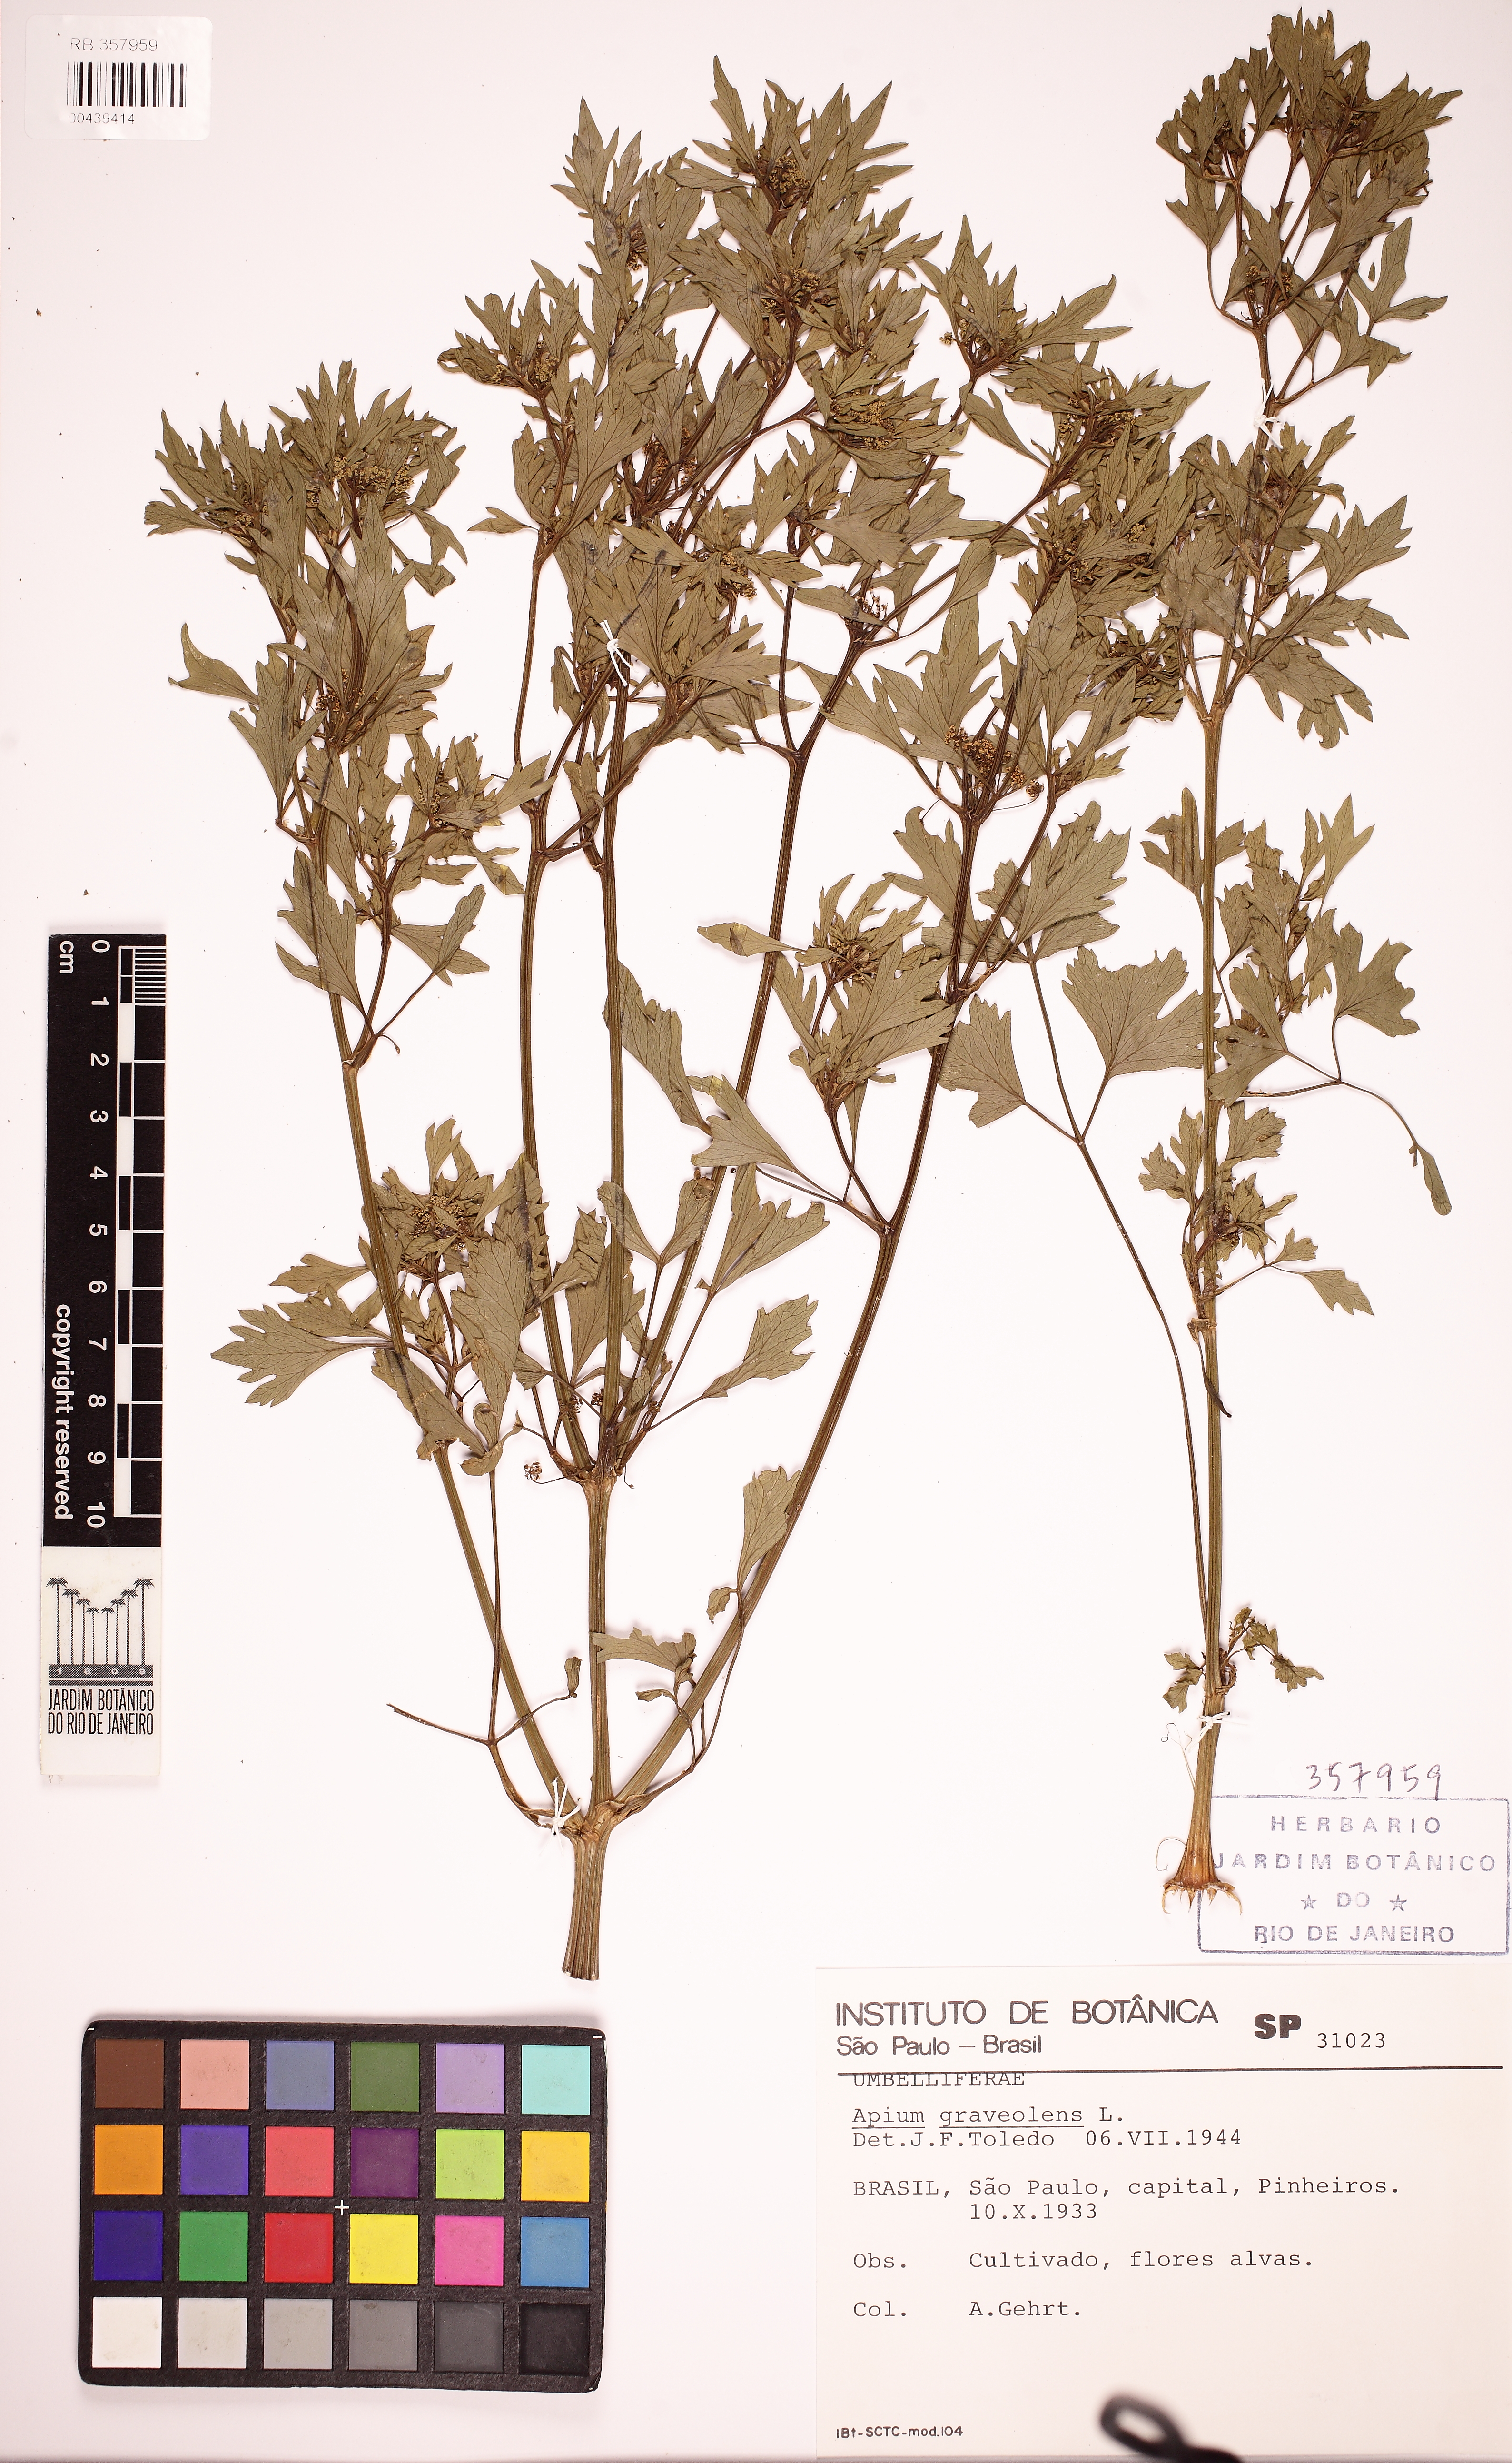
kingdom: Plantae
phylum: Tracheophyta
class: Magnoliopsida
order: Apiales
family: Apiaceae
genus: Apium
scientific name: Apium graveolens
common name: Wild celery
